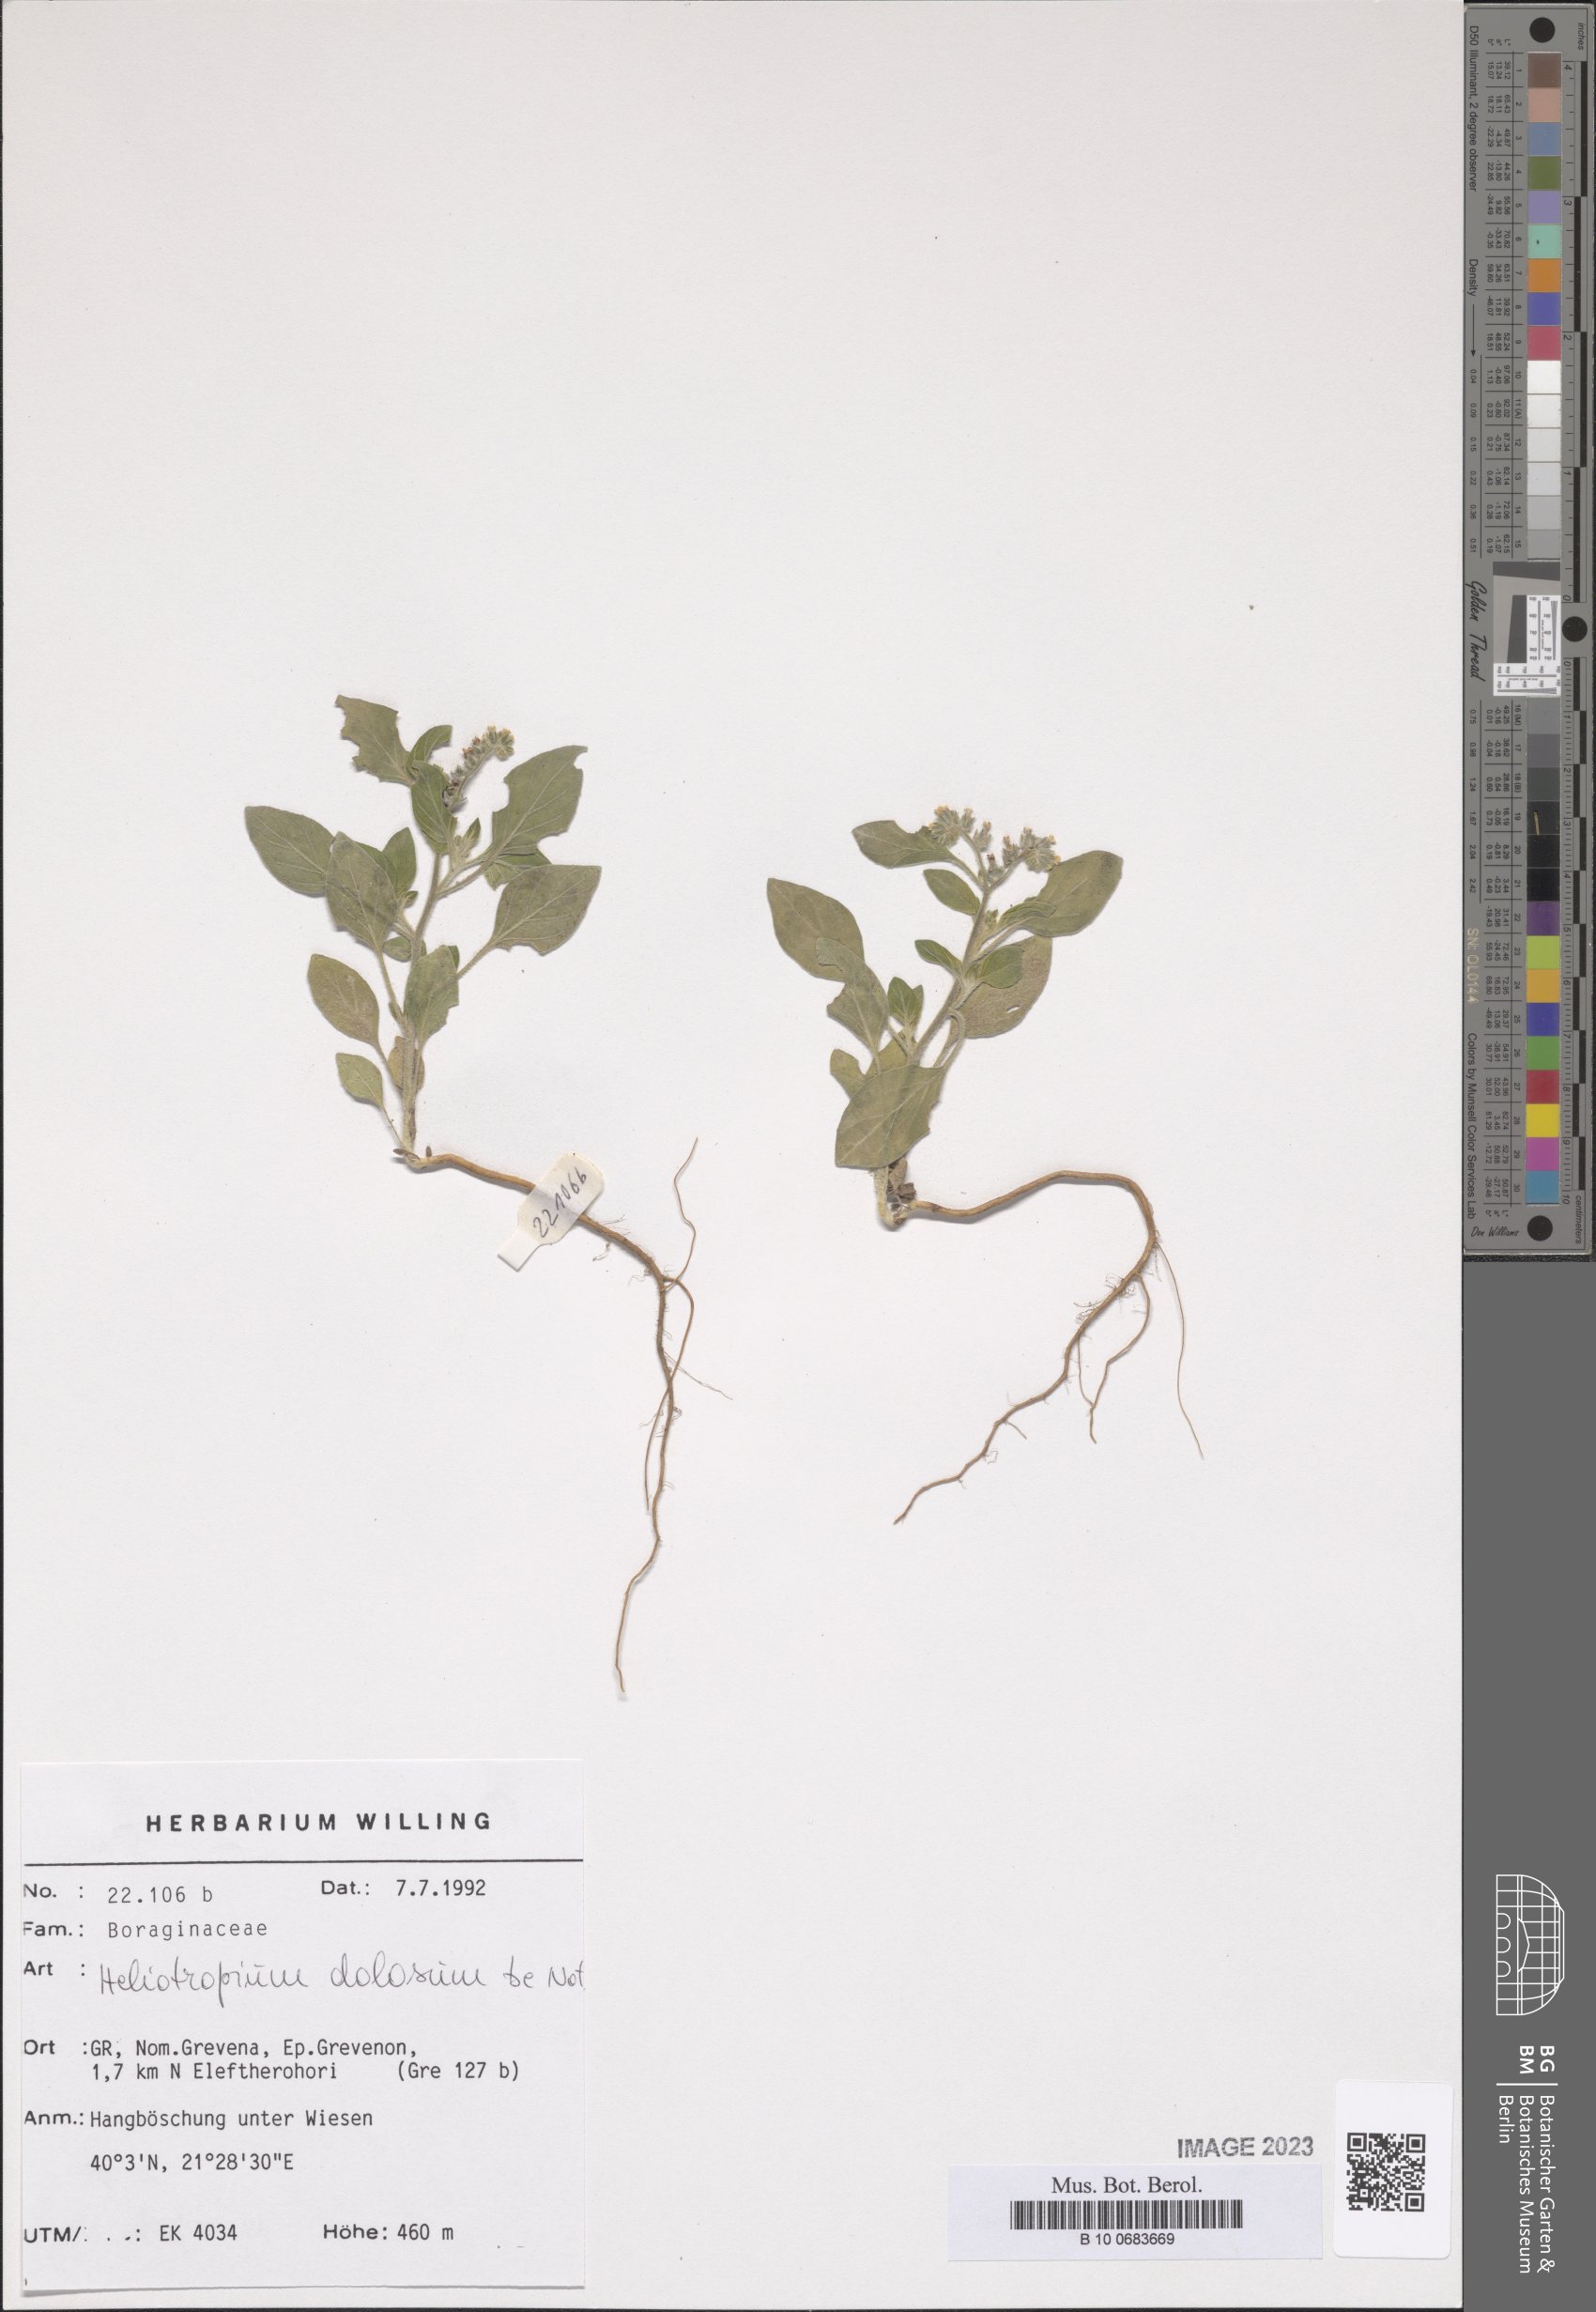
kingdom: Plantae
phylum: Tracheophyta
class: Magnoliopsida
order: Boraginales
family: Heliotropiaceae
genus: Heliotropium
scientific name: Heliotropium dolosum
